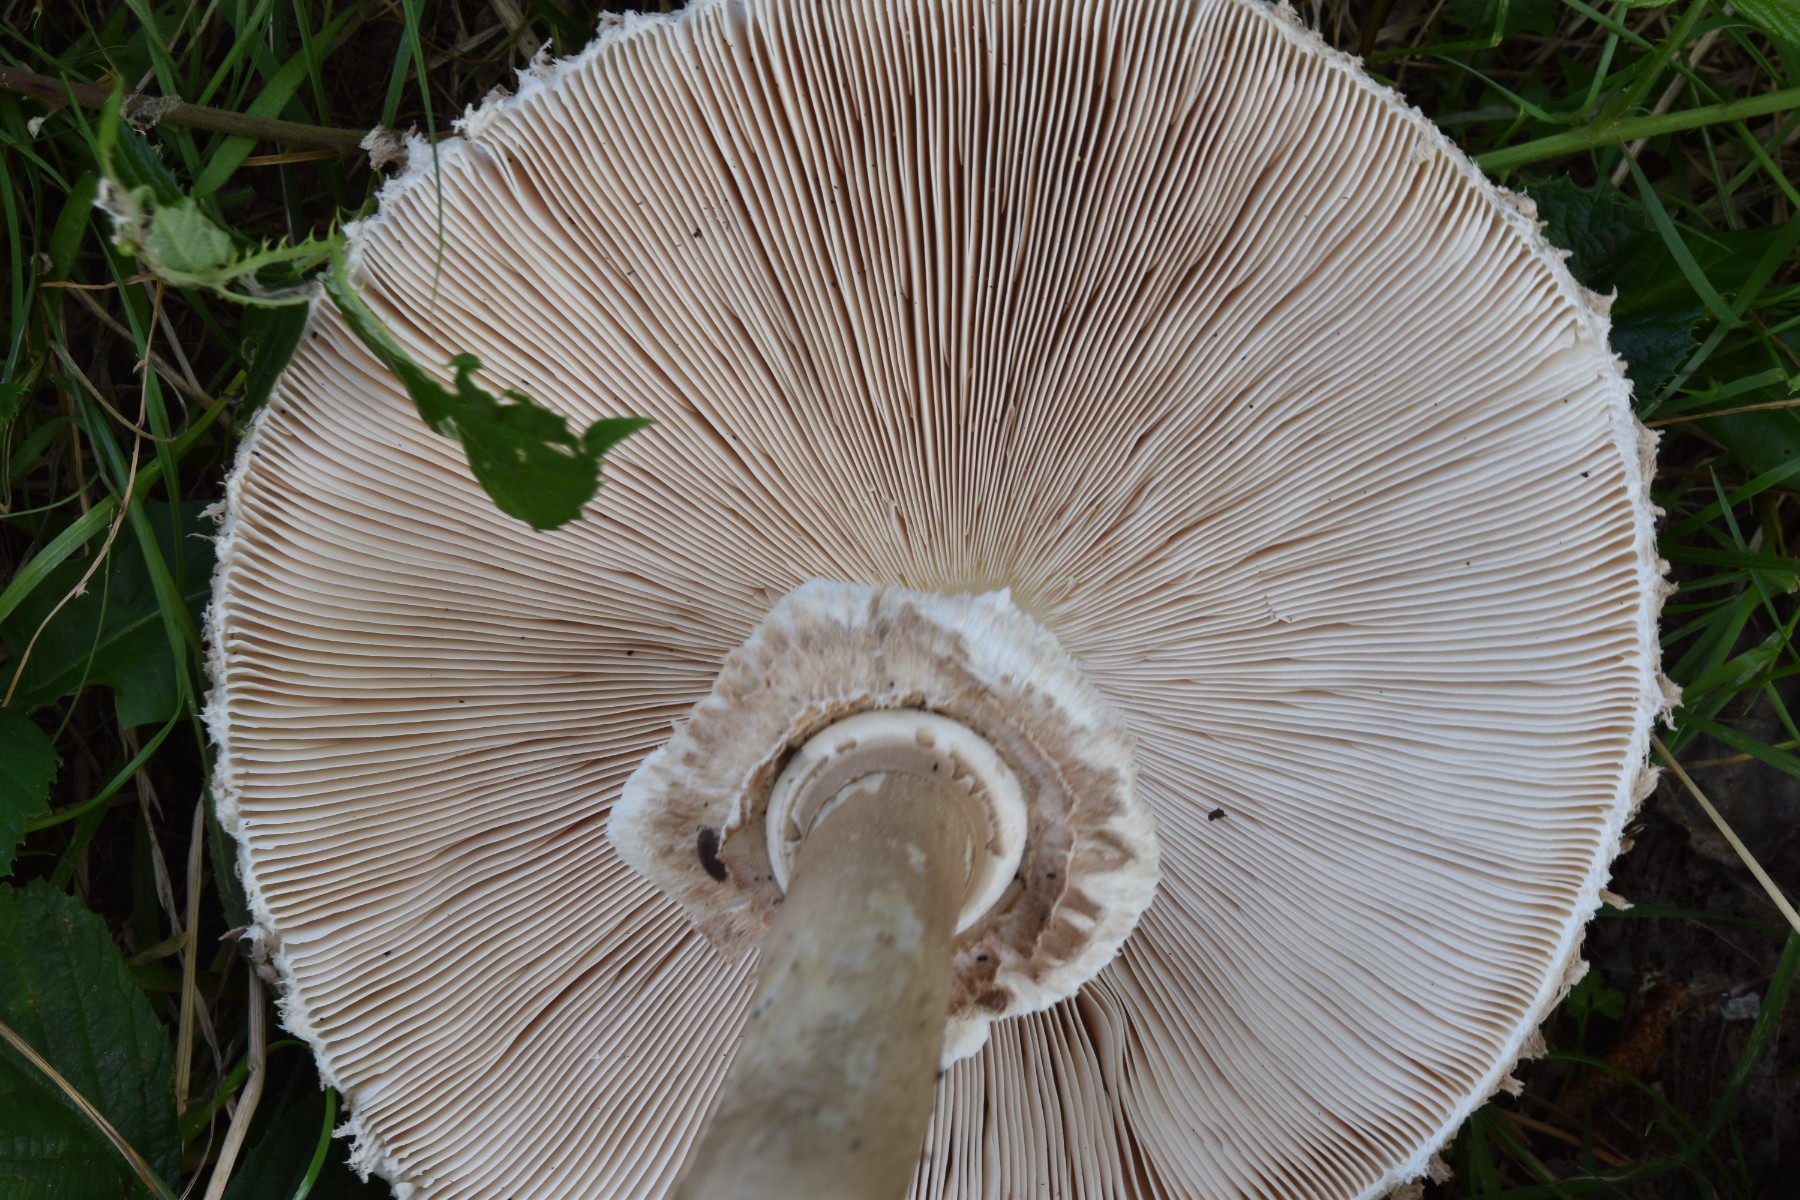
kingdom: Fungi
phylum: Basidiomycota
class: Agaricomycetes
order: Agaricales
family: Agaricaceae
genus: Macrolepiota
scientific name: Macrolepiota procera
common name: stor kæmpeparasolhat
